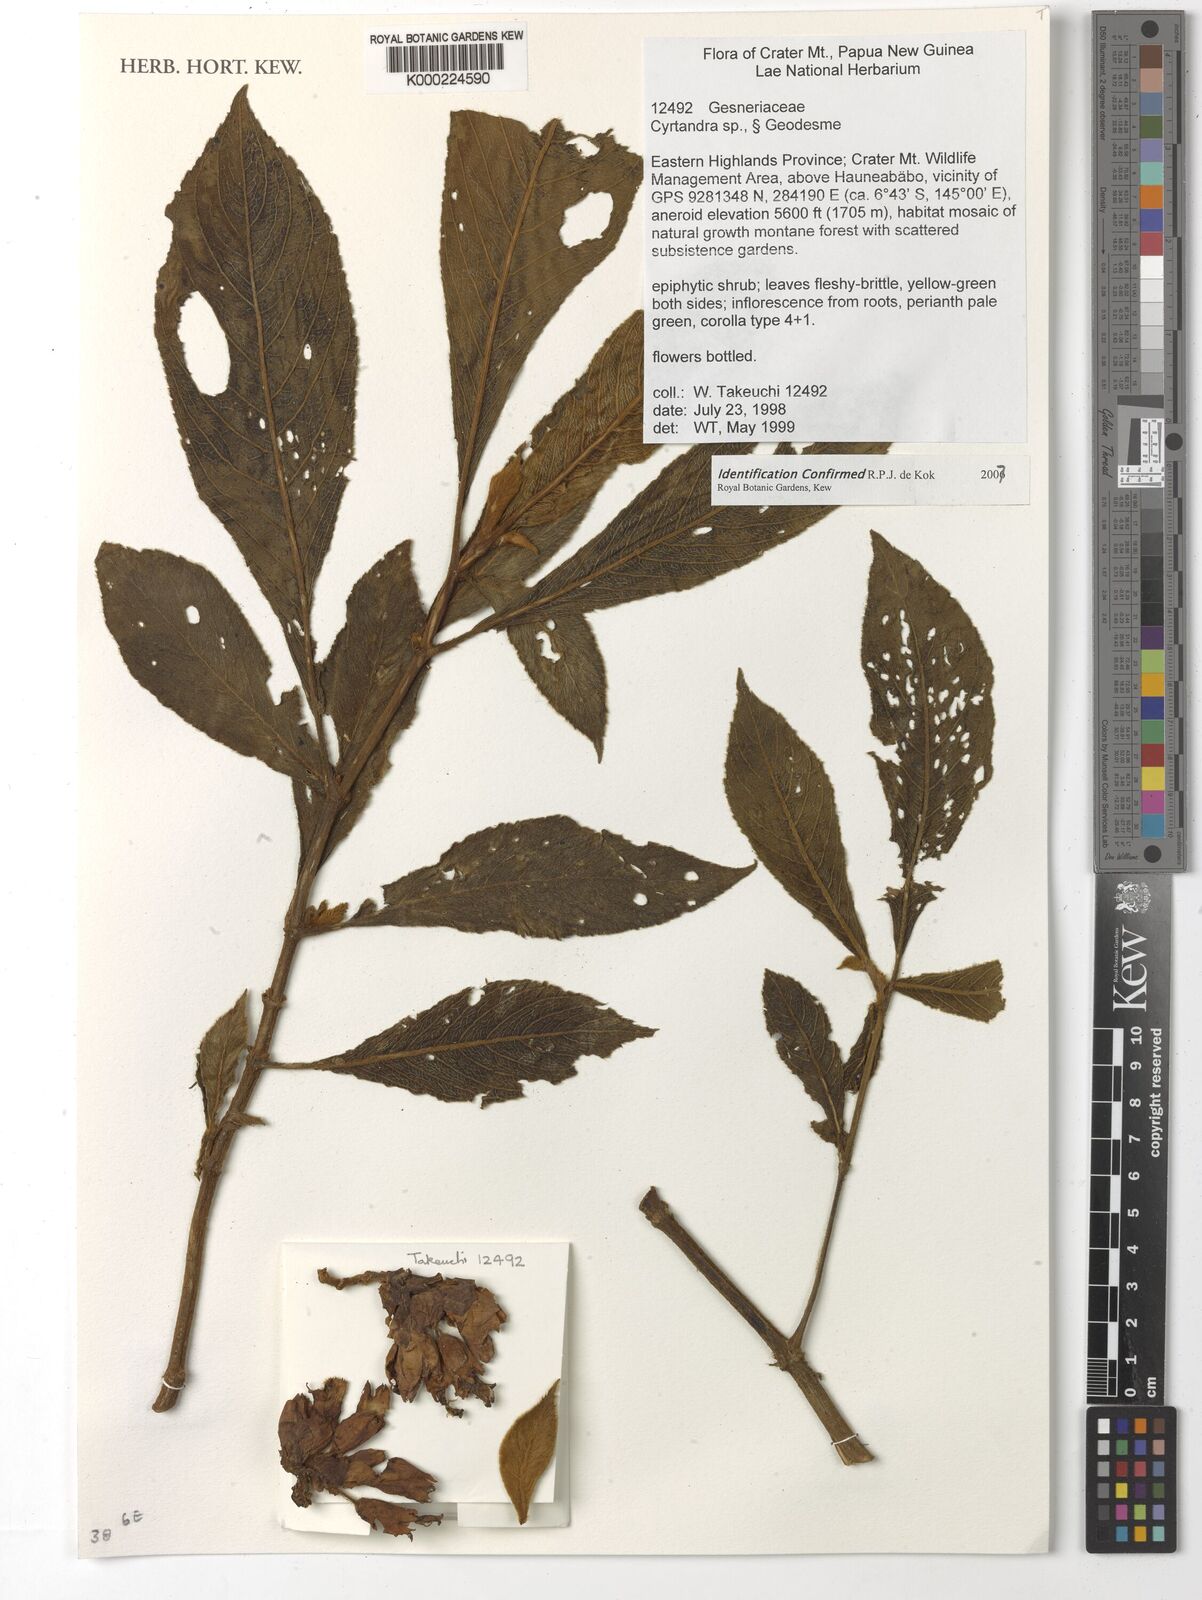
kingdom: Plantae
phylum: Tracheophyta
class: Magnoliopsida
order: Lamiales
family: Gesneriaceae
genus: Cyrtandra
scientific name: Cyrtandra
